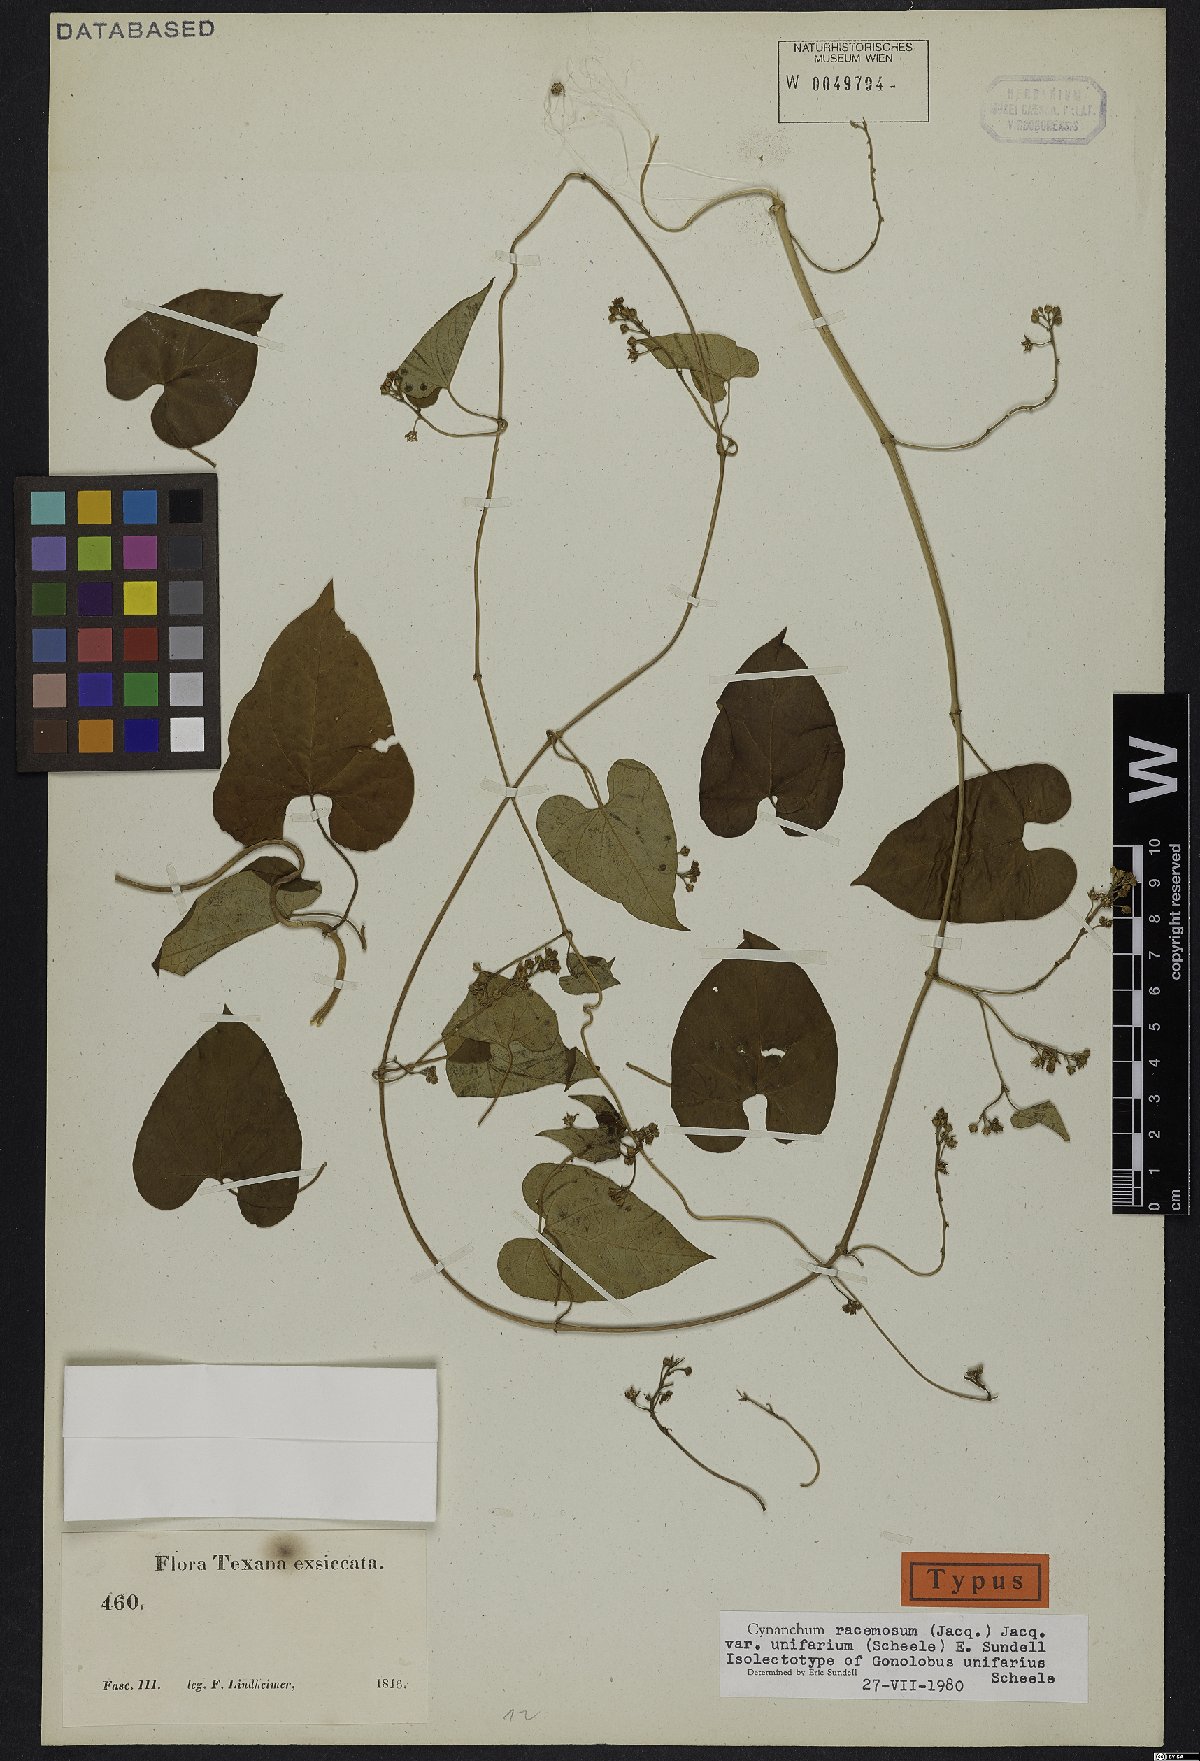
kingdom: Plantae
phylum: Tracheophyta
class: Magnoliopsida
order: Gentianales
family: Apocynaceae
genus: Cynanchum
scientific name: Cynanchum racemosum
